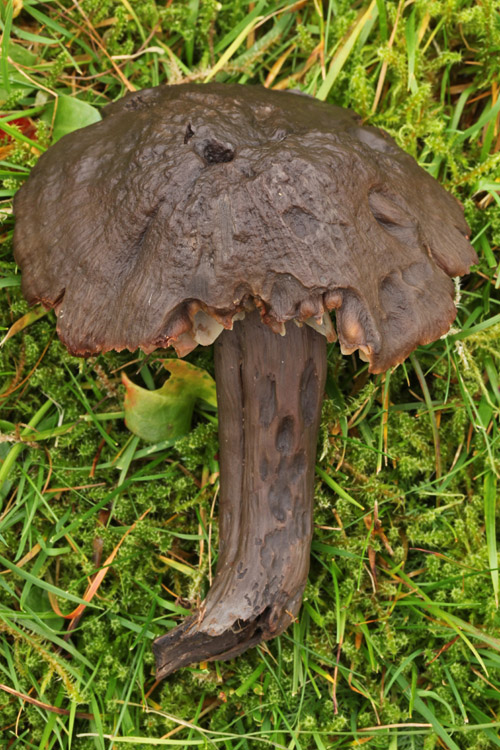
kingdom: Fungi
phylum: Basidiomycota
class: Agaricomycetes
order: Agaricales
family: Hygrophoraceae
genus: Neohygrocybe
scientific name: Neohygrocybe ovina
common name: rødmende vokshat
